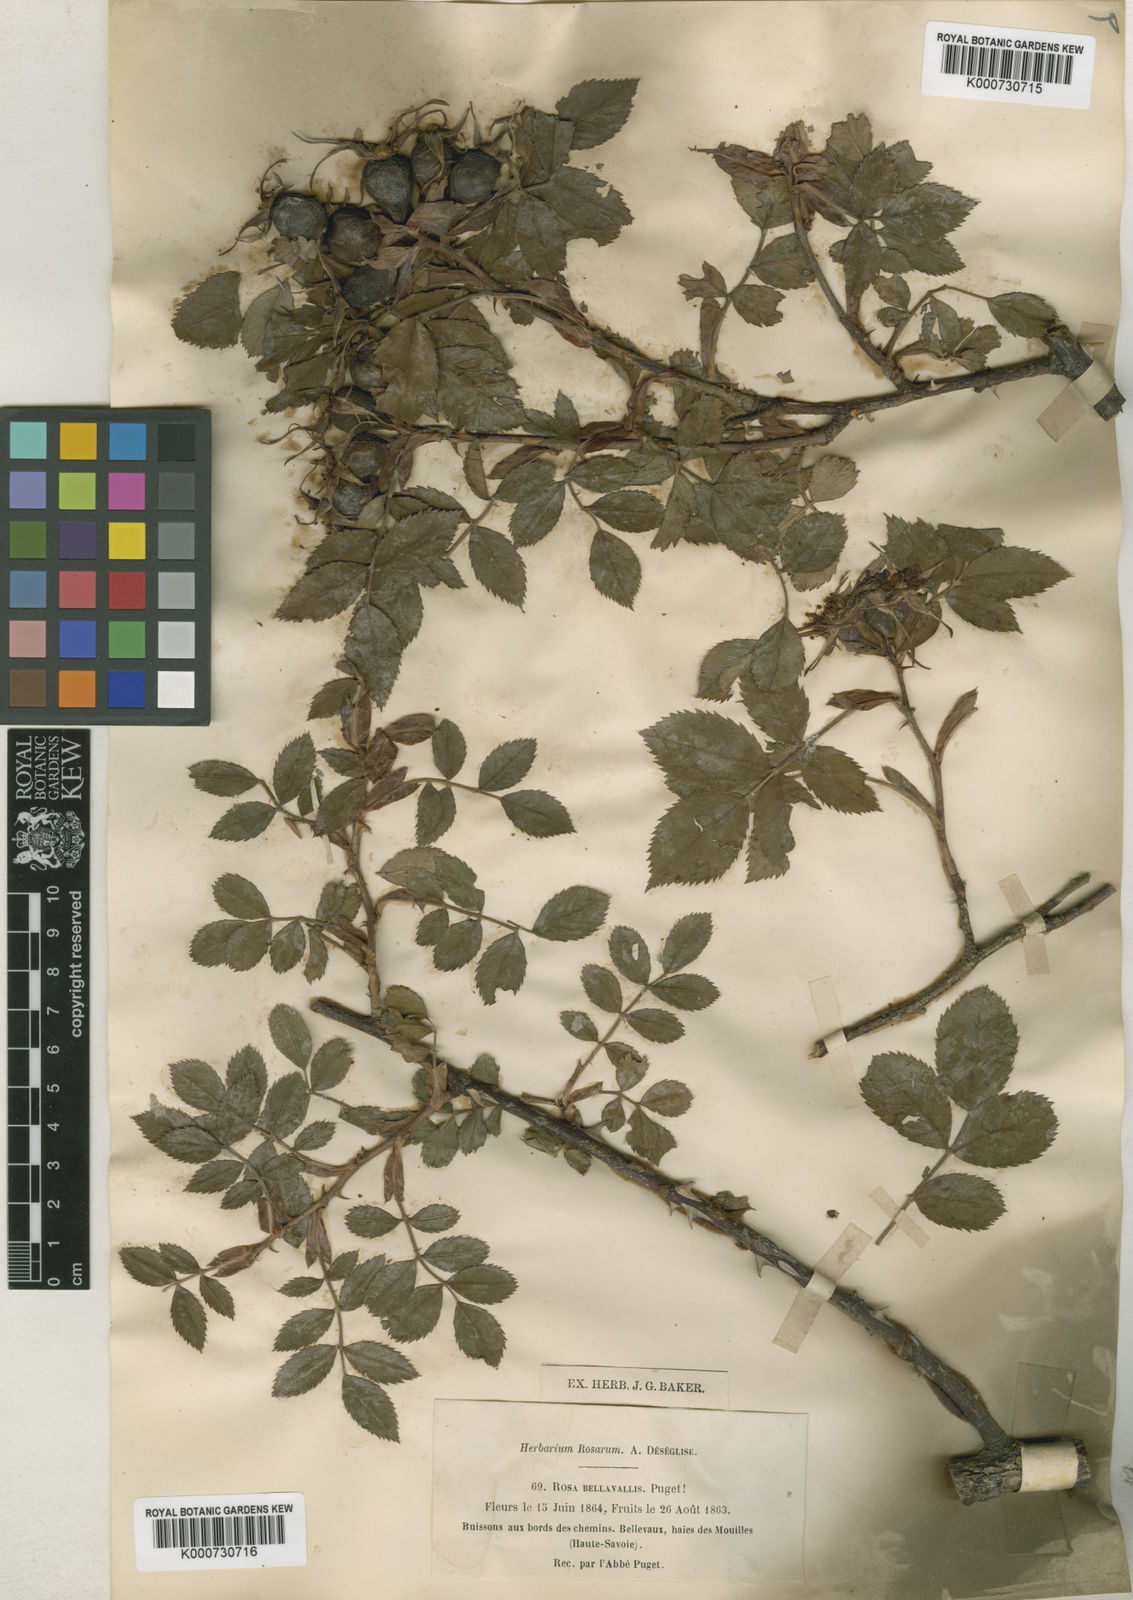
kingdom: Plantae
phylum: Tracheophyta
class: Magnoliopsida
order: Rosales
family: Rosaceae
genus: Rosa
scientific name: Rosa stylosa
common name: Short-styled field-rose
